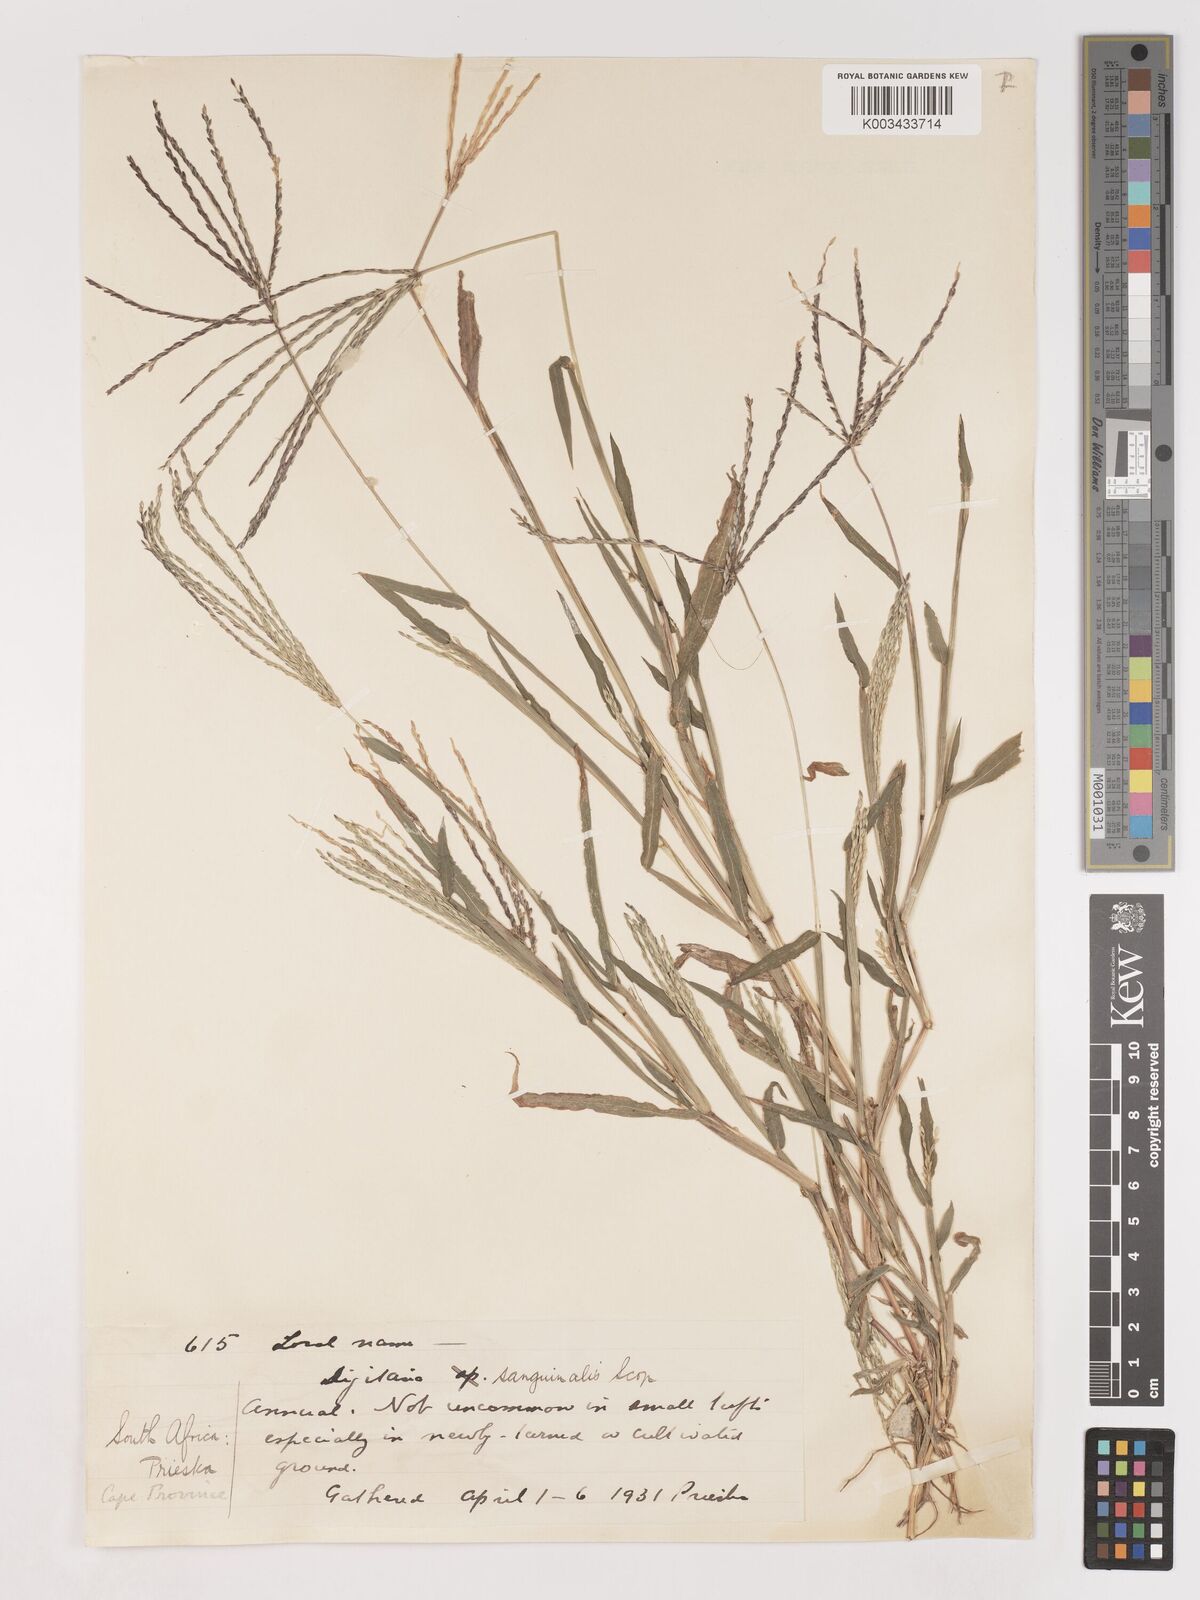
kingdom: Plantae
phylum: Tracheophyta
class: Liliopsida
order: Poales
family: Poaceae
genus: Digitaria
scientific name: Digitaria sanguinalis
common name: Hairy crabgrass
